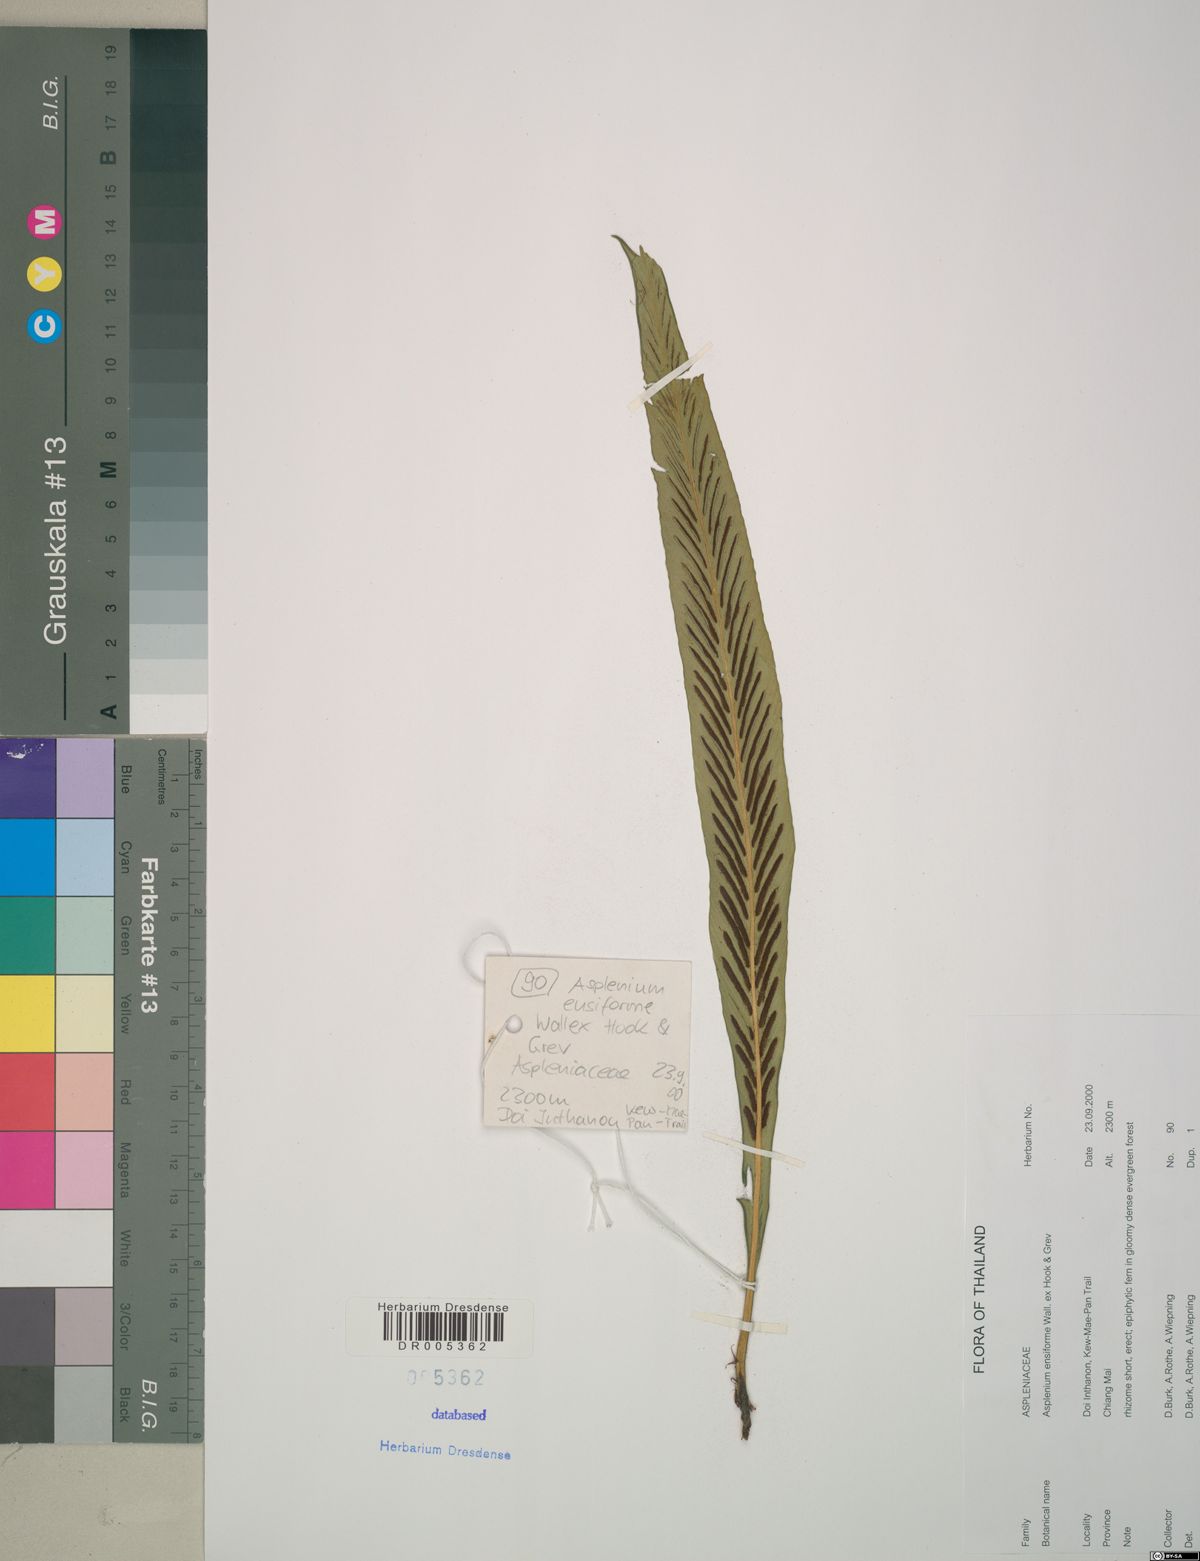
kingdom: Plantae
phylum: Tracheophyta
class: Polypodiopsida
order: Polypodiales
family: Aspleniaceae
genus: Asplenium
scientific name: Asplenium ensiforme
